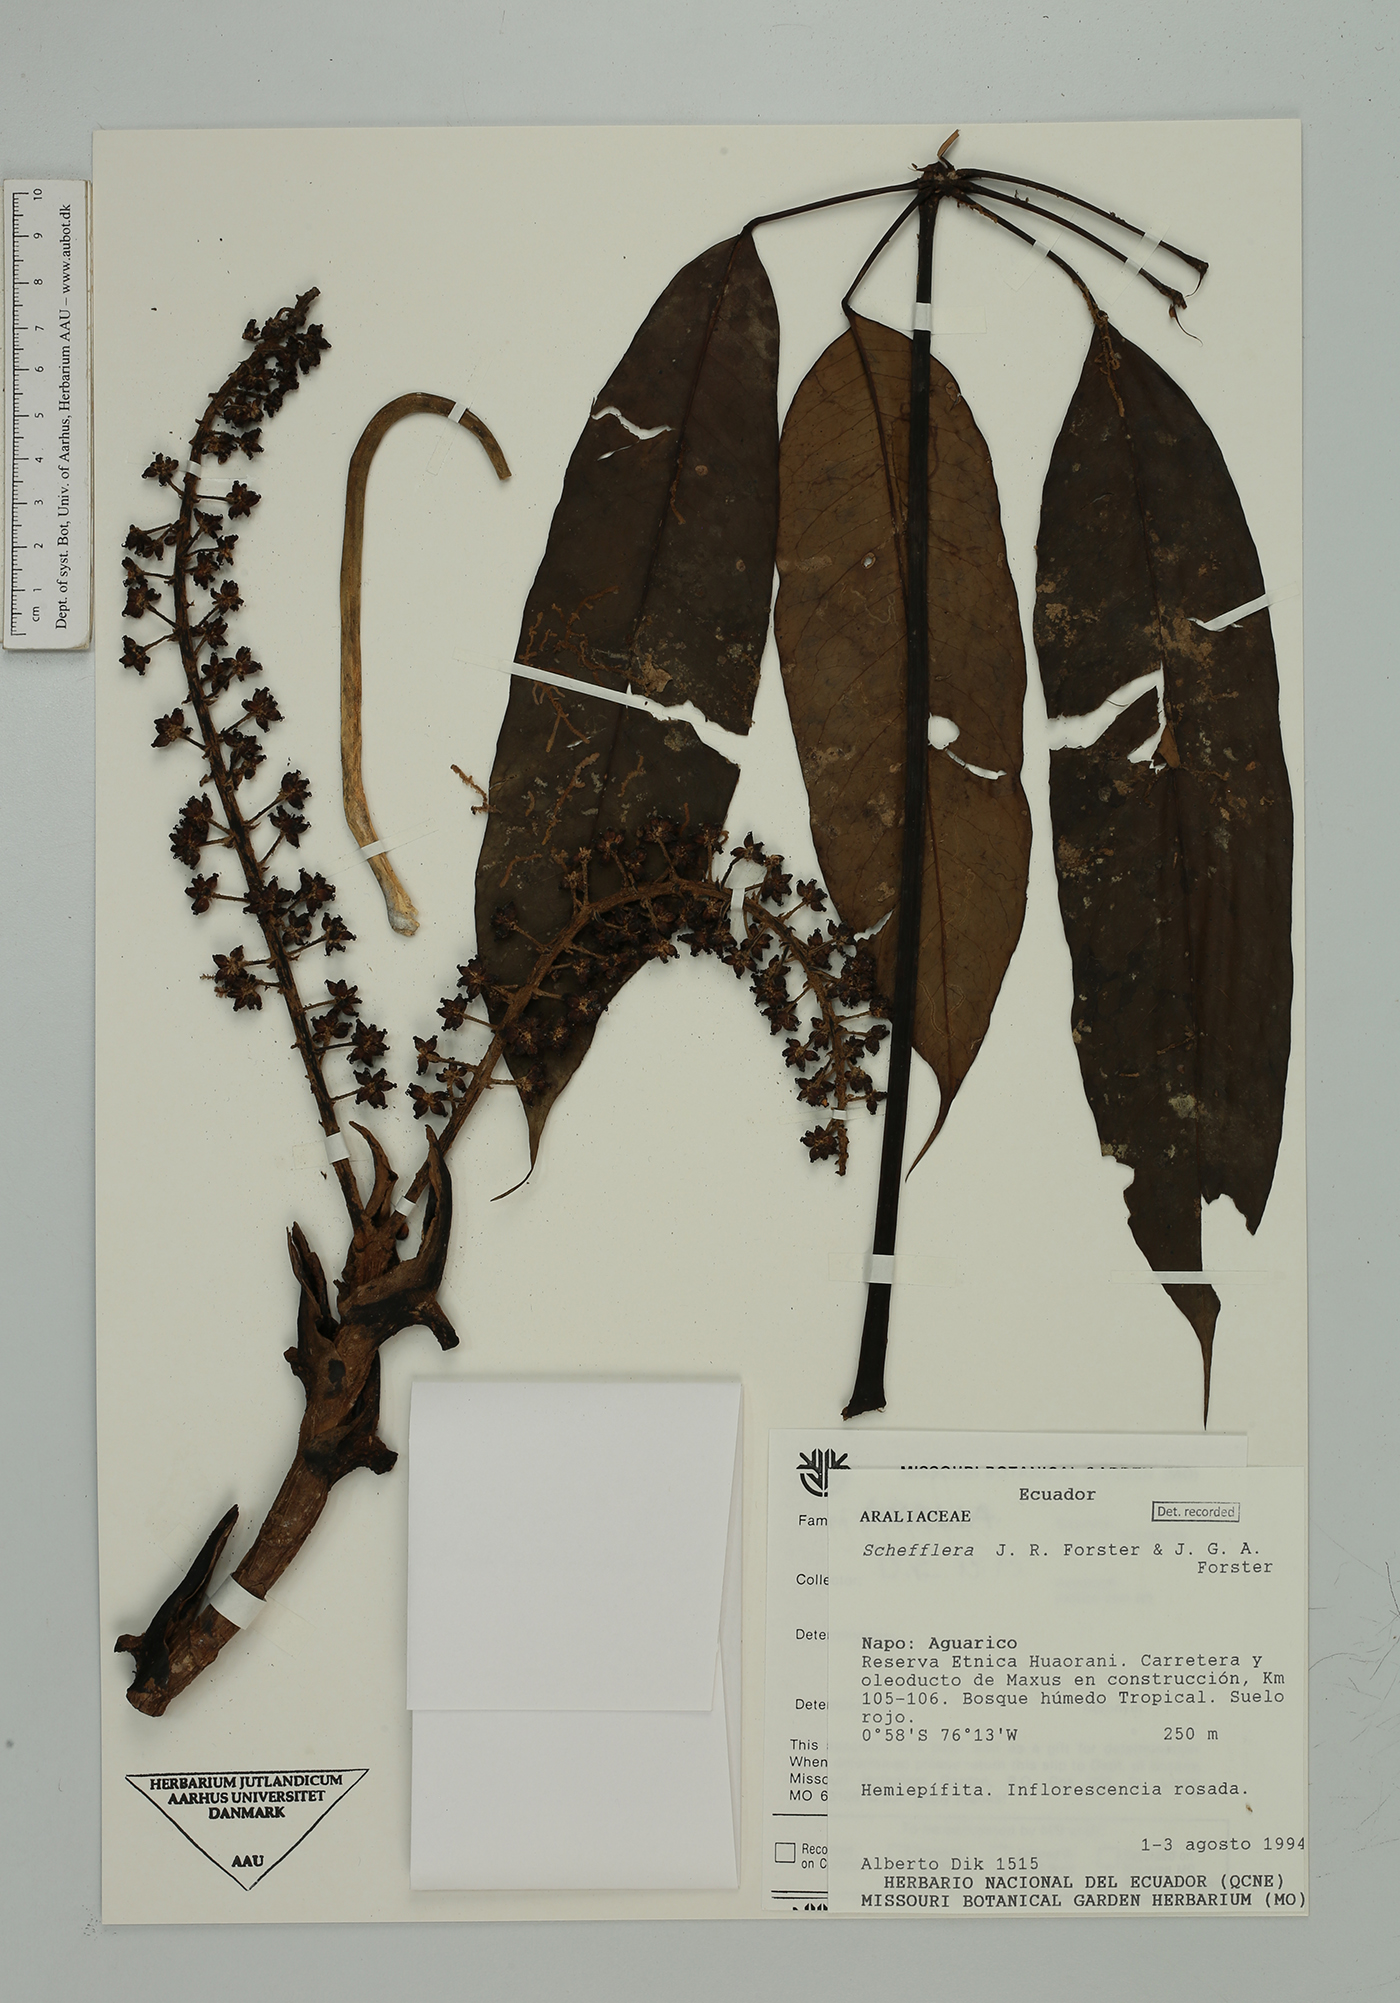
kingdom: Plantae
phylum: Tracheophyta
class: Magnoliopsida
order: Apiales
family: Araliaceae
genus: Sciodaphyllum
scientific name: Sciodaphyllum sprucei
